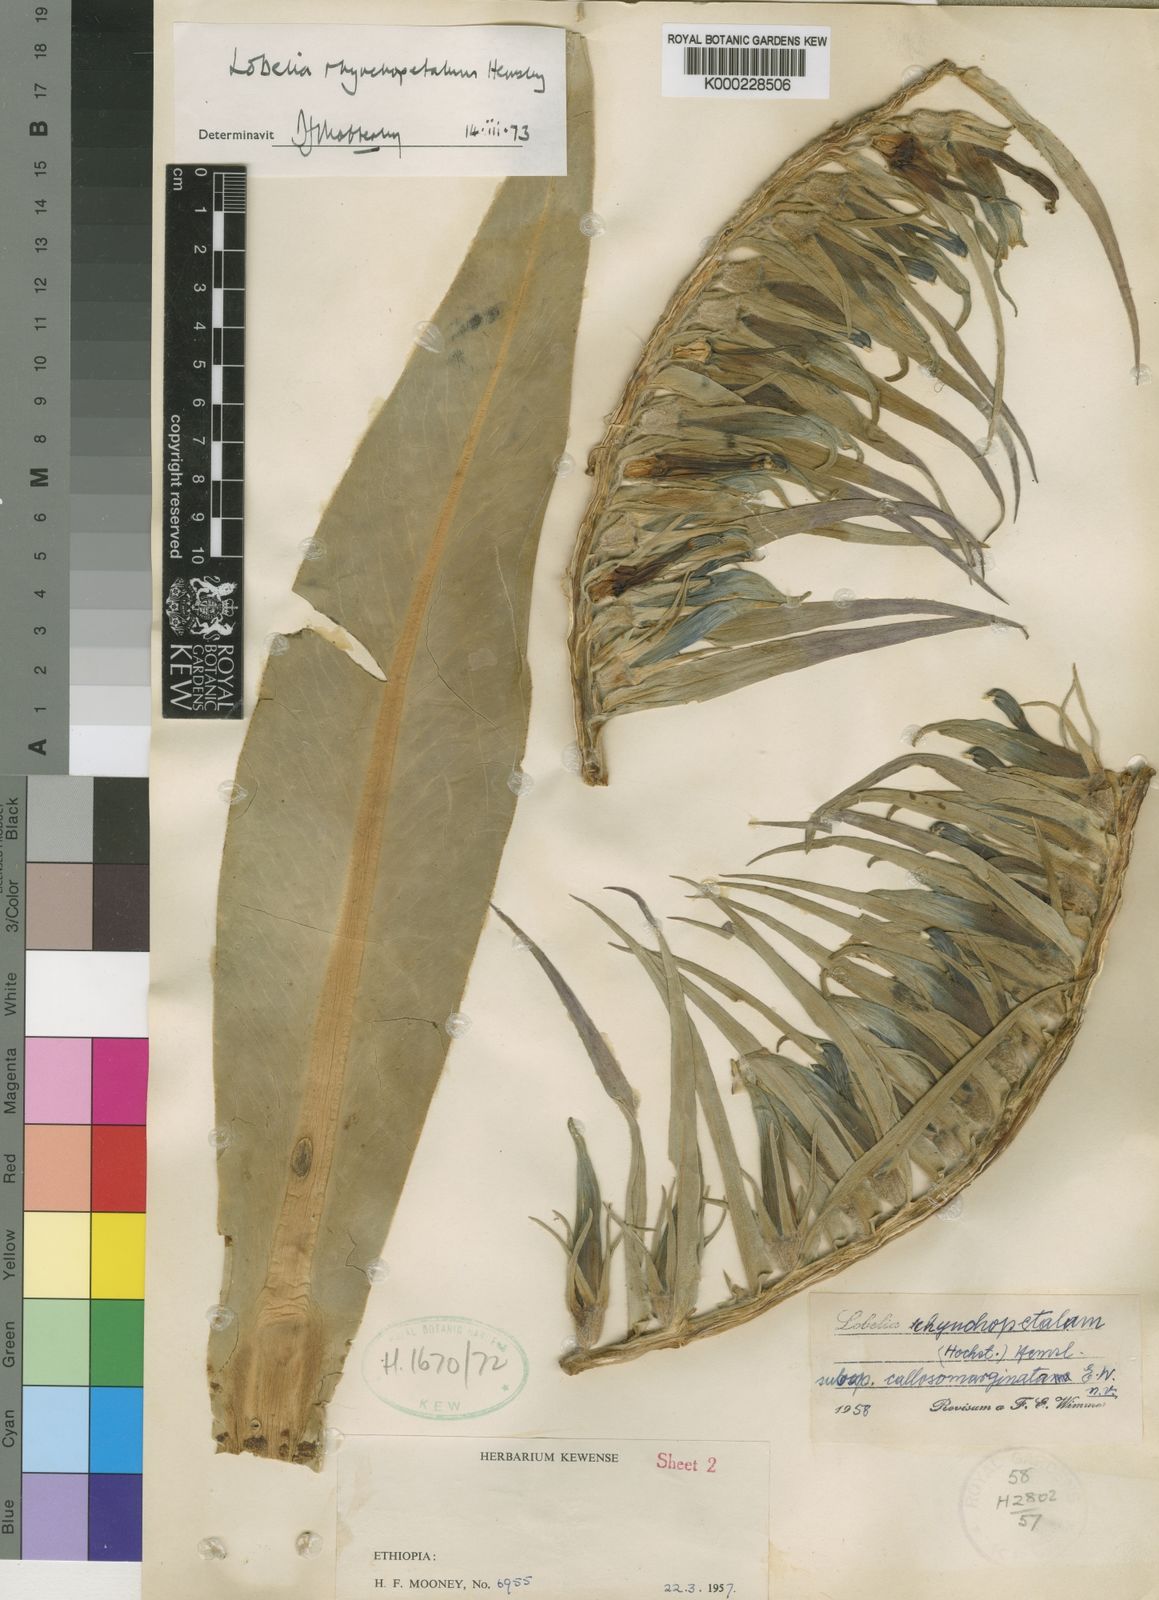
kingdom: Plantae
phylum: Tracheophyta
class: Magnoliopsida
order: Asterales
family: Campanulaceae
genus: Lobelia
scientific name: Lobelia rhynchopetalum
